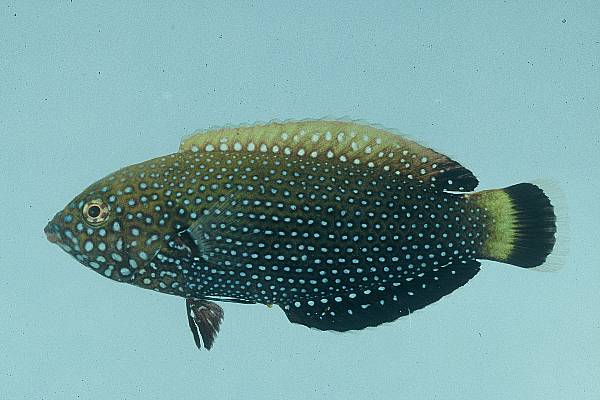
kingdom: Animalia
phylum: Chordata
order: Perciformes
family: Labridae
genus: Anampses
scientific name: Anampses caeruleopunctatus
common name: Bluespotted wrasse
